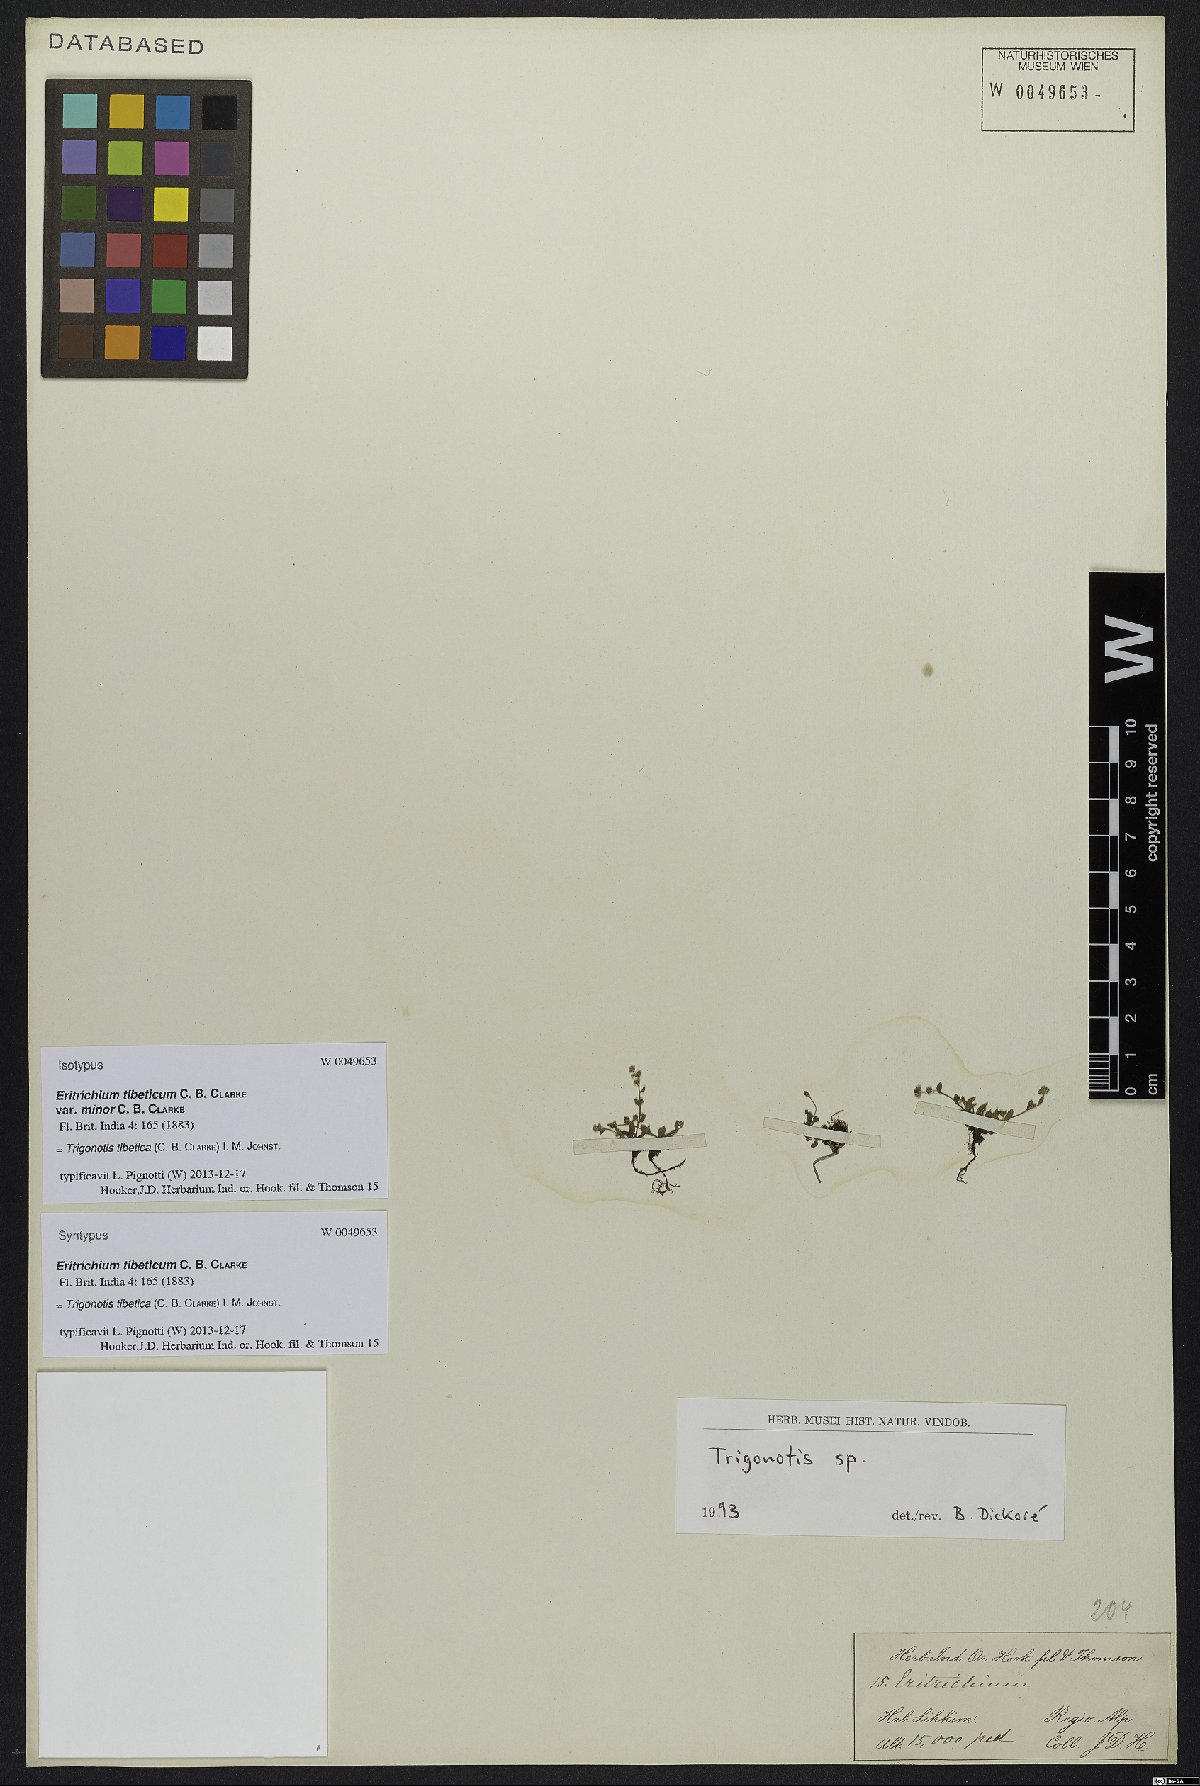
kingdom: Plantae
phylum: Tracheophyta
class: Magnoliopsida
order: Boraginales
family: Boraginaceae
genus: Trigonotis
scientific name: Trigonotis tibetica
